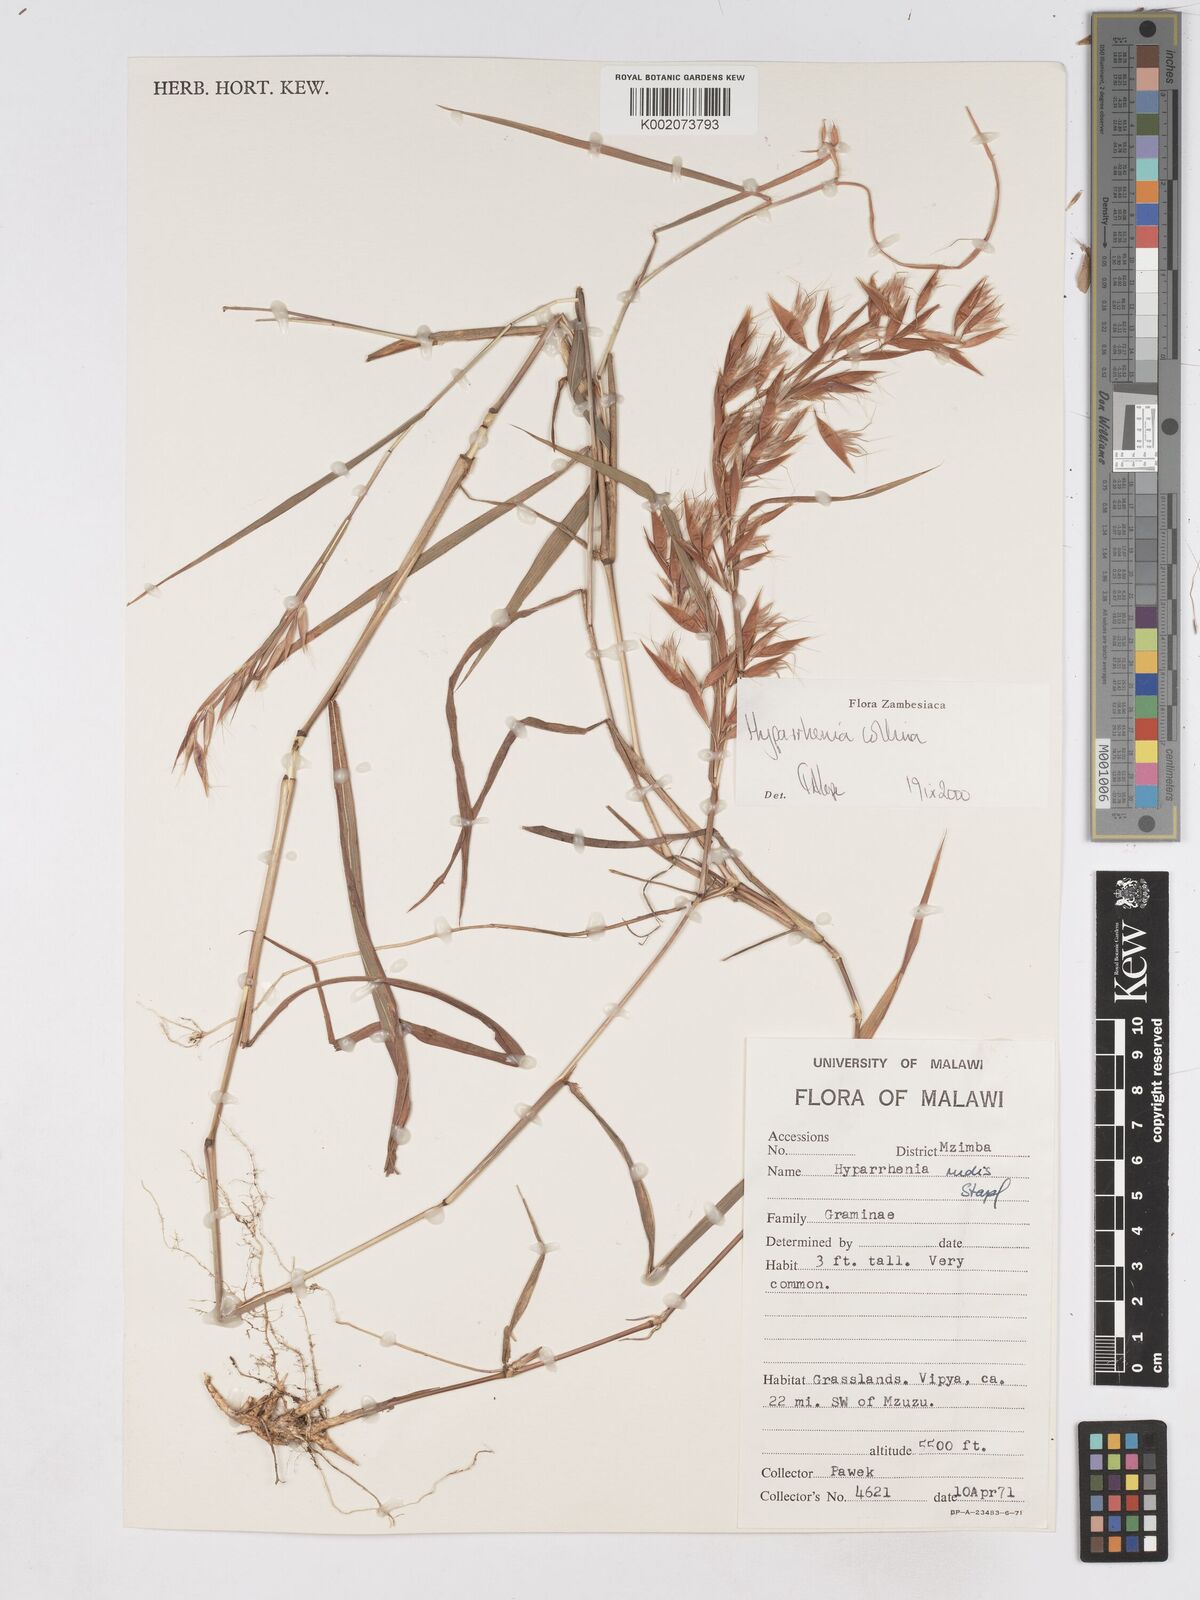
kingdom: Plantae
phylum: Tracheophyta
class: Liliopsida
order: Poales
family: Poaceae
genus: Hyparrhenia
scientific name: Hyparrhenia collina
